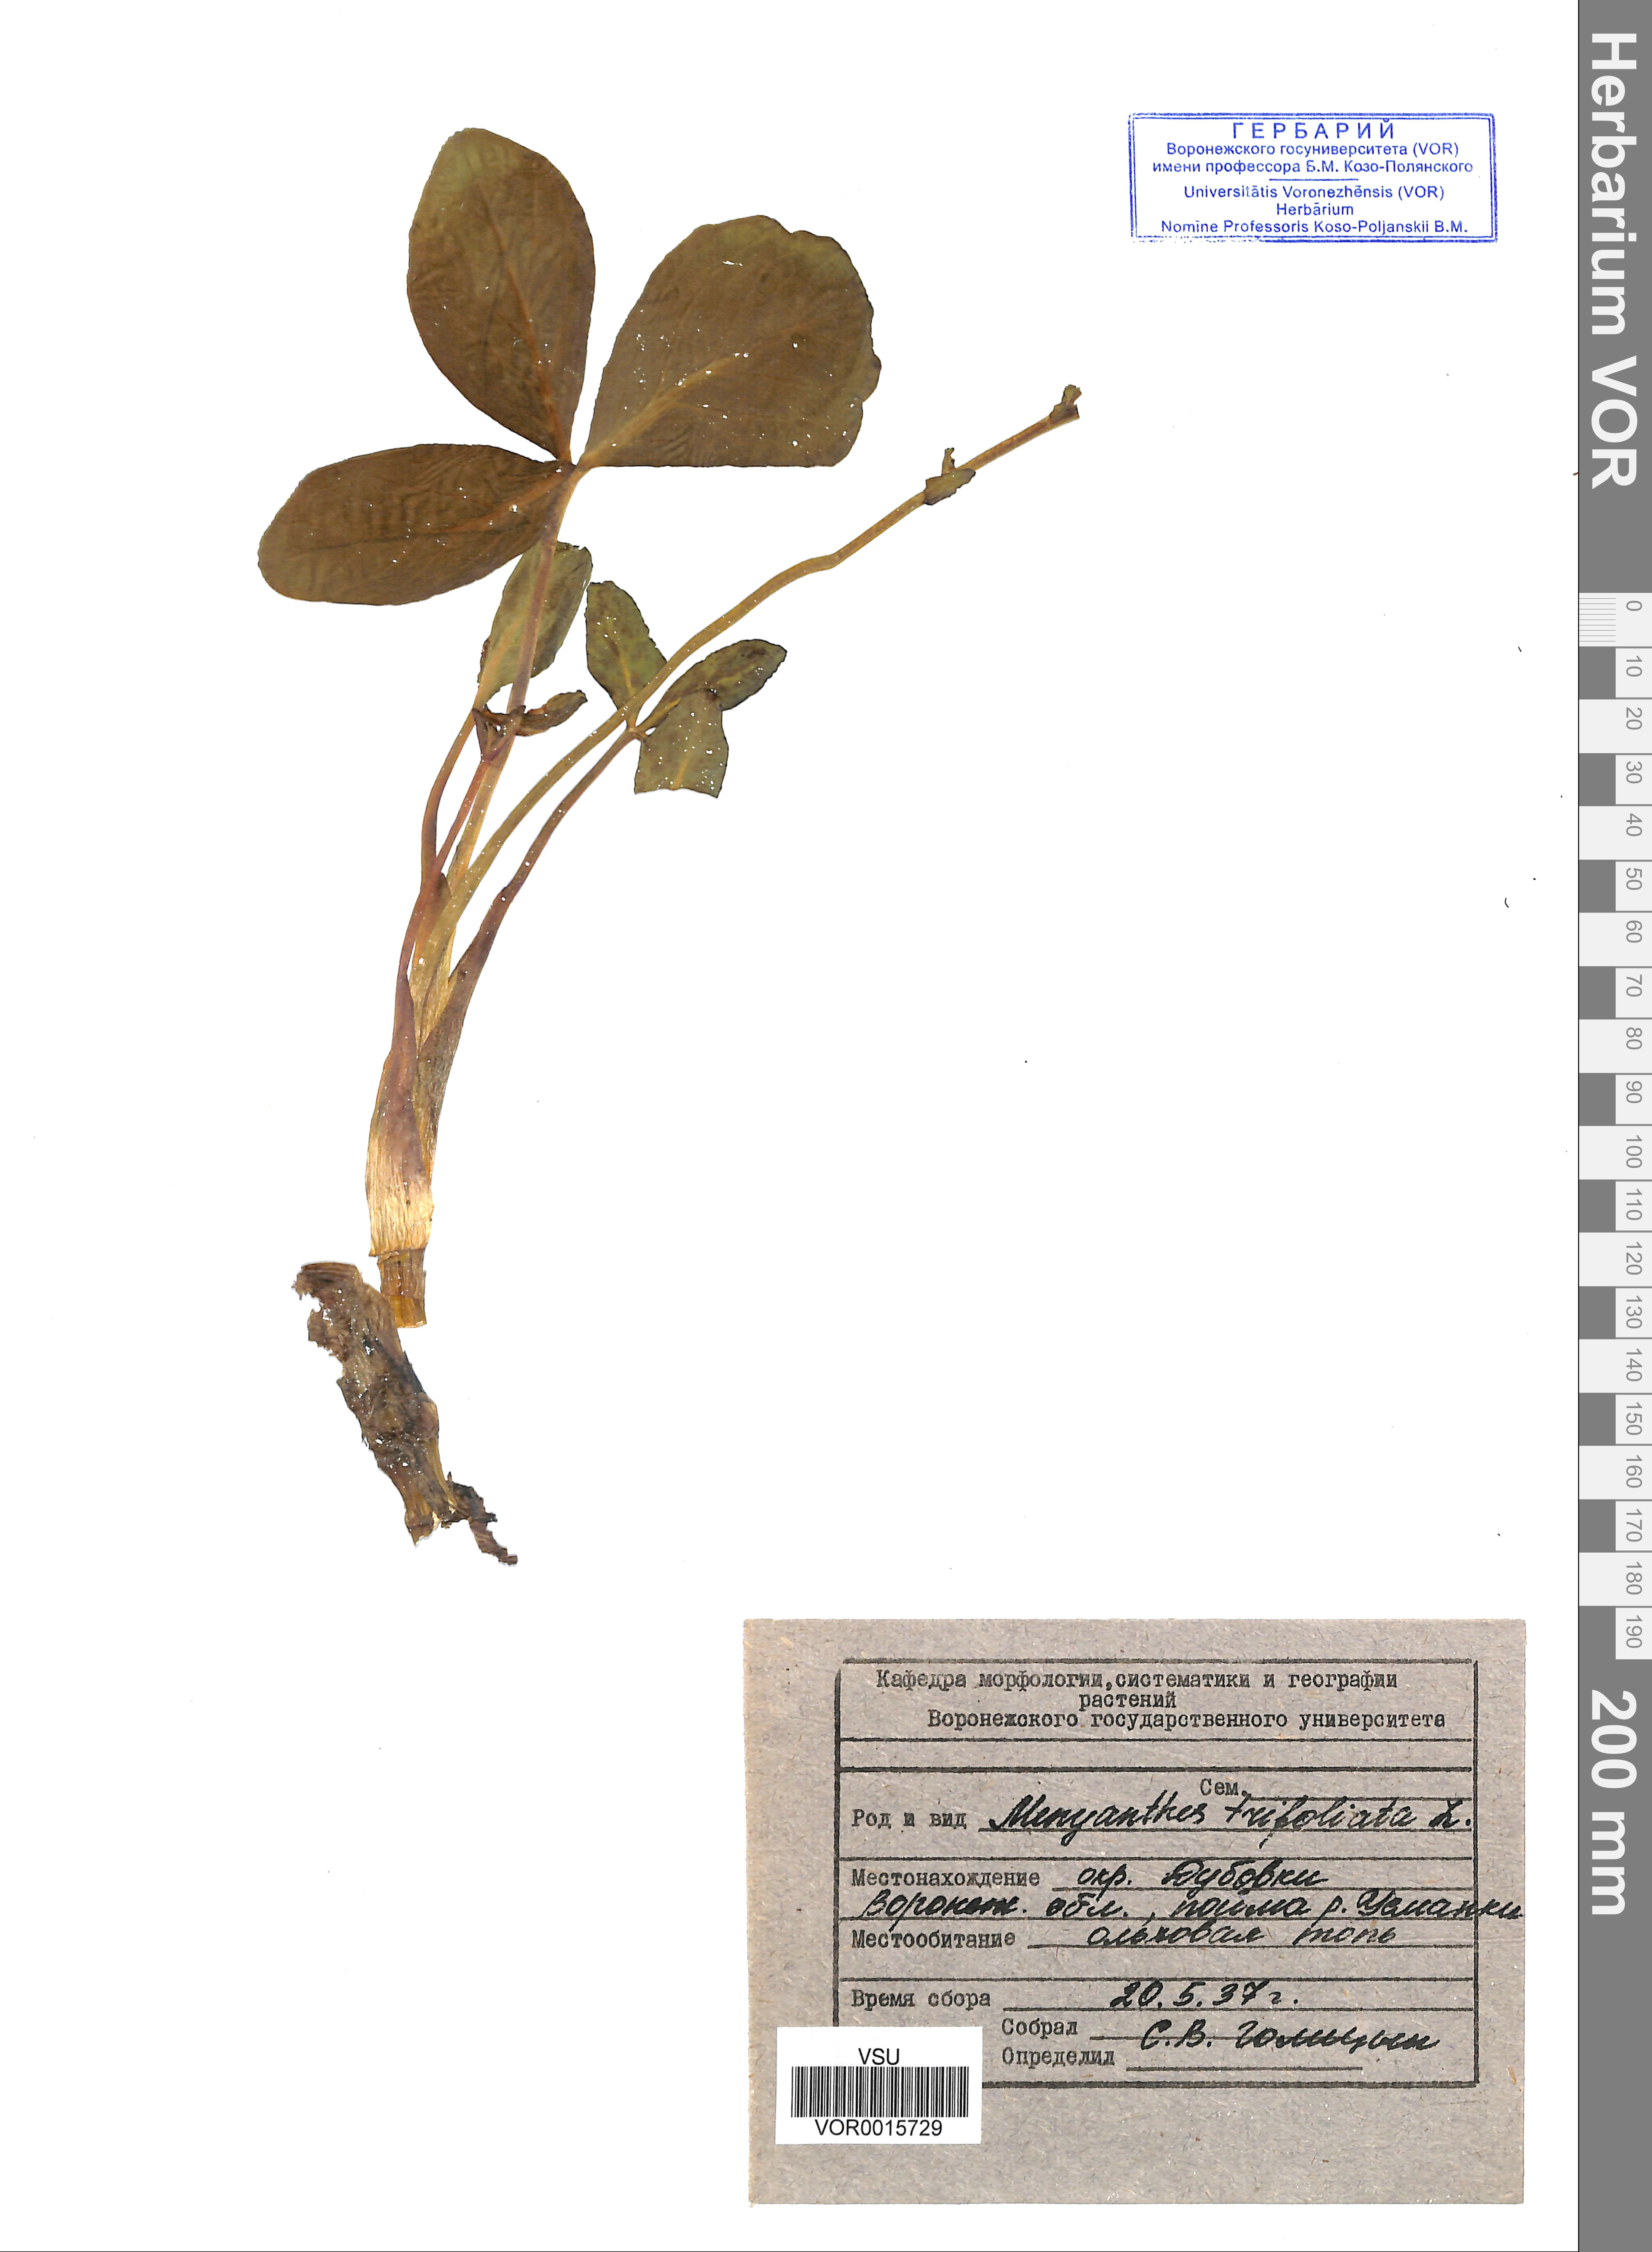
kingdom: Plantae
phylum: Tracheophyta
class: Magnoliopsida
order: Asterales
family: Menyanthaceae
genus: Menyanthes
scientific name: Menyanthes trifoliata
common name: Bogbean
